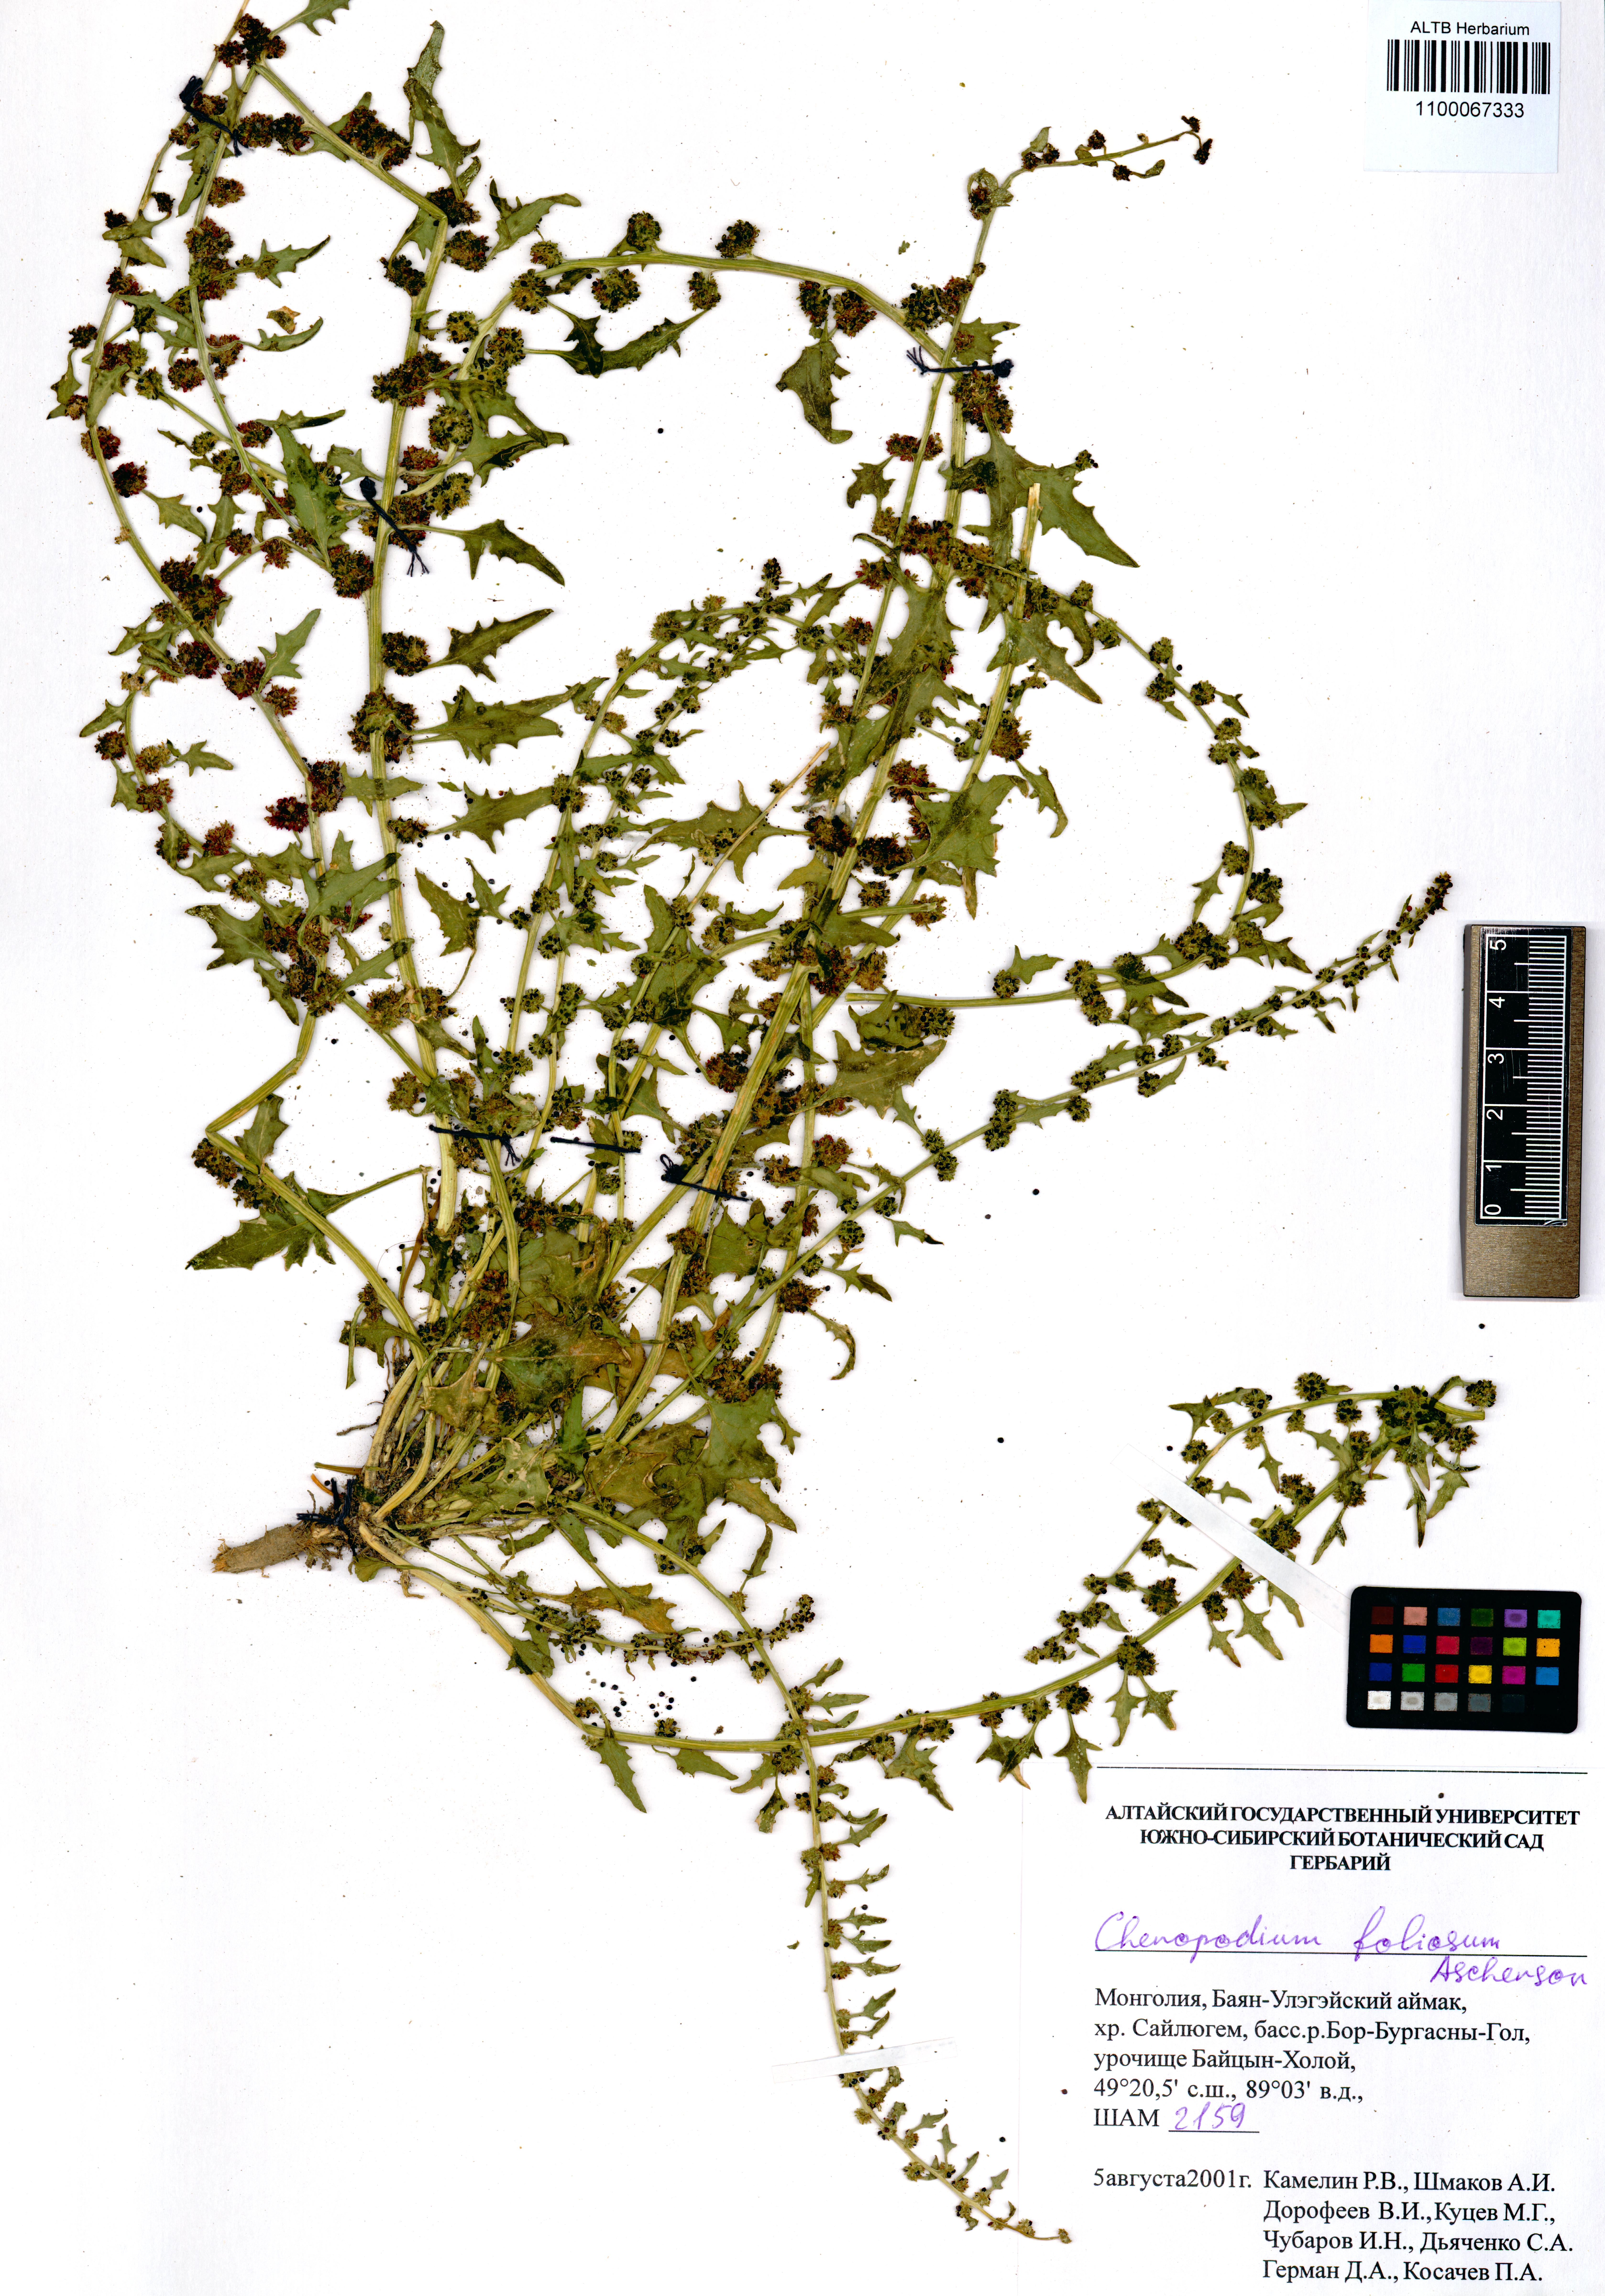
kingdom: Plantae
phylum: Tracheophyta
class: Magnoliopsida
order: Caryophyllales
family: Amaranthaceae
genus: Blitum
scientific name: Blitum virgatum
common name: Strawberry goosefoot
